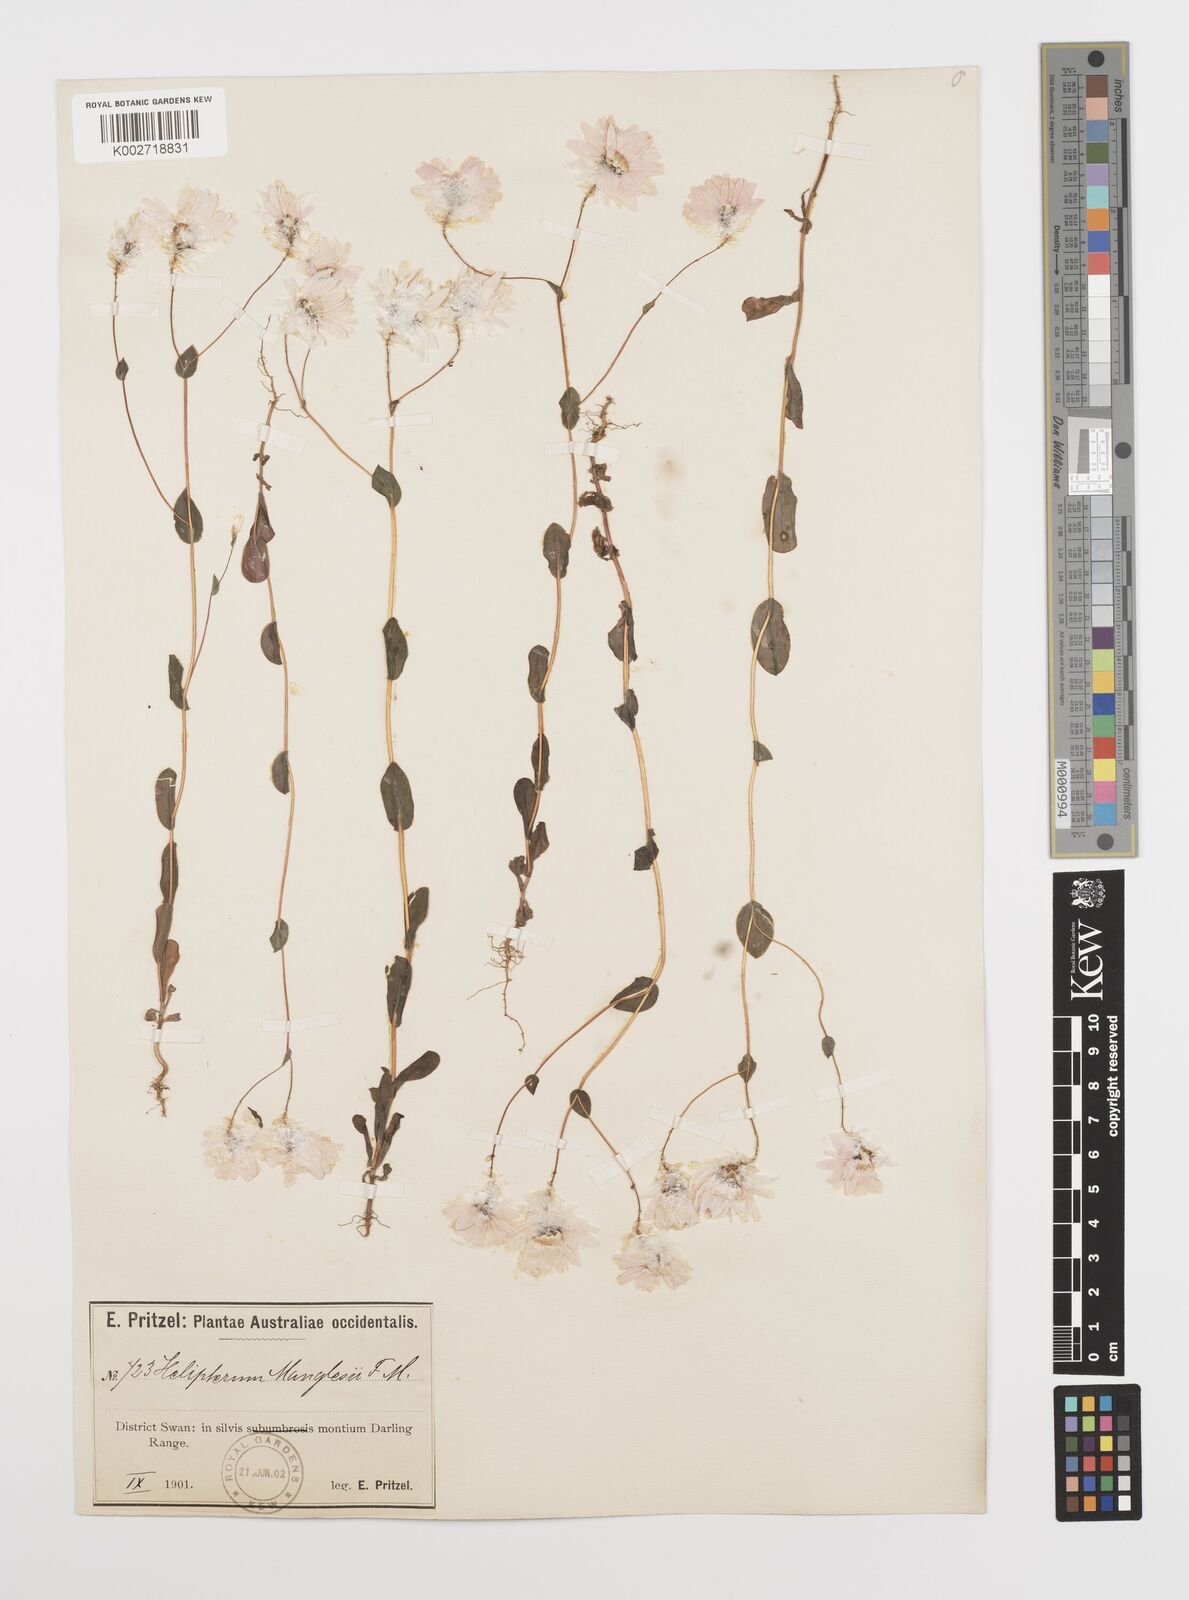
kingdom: Plantae
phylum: Tracheophyta
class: Magnoliopsida
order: Asterales
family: Asteraceae
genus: Rhodanthe
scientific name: Rhodanthe manglesii
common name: Pink sunray
